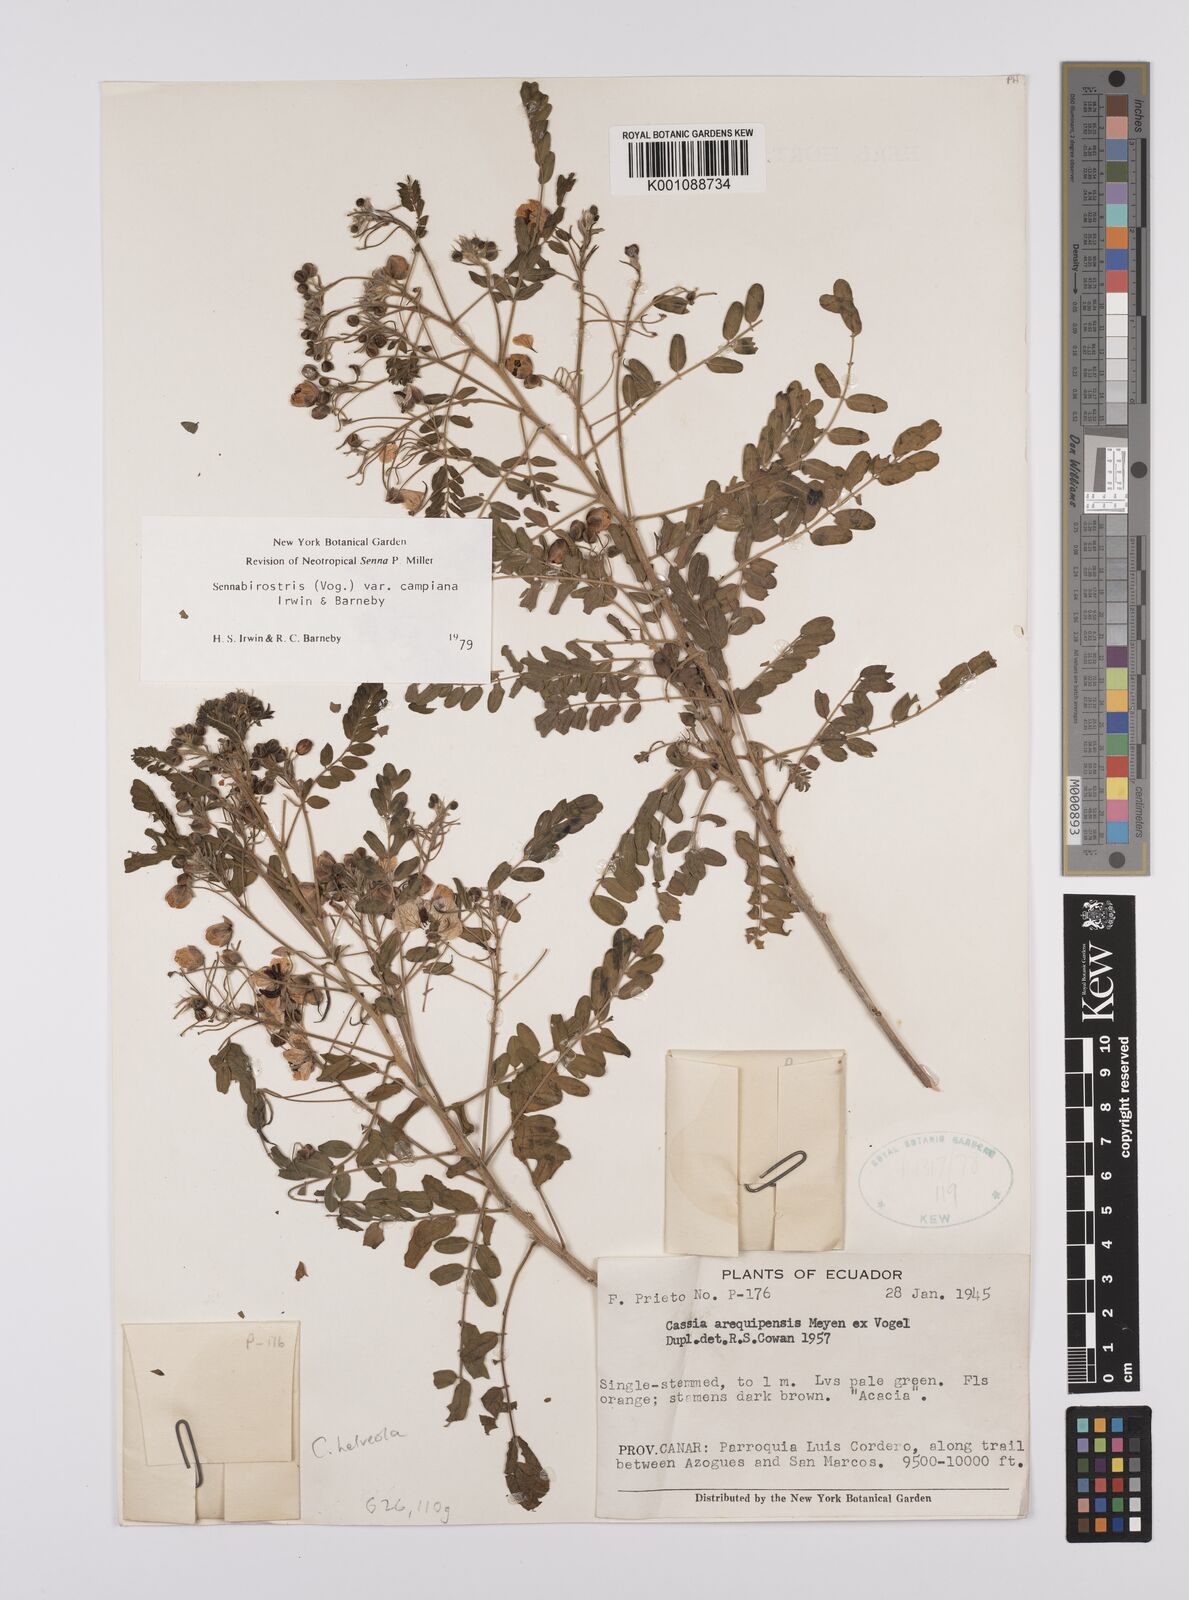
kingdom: Plantae
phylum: Tracheophyta
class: Magnoliopsida
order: Fabales
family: Fabaceae
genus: Senna
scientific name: Senna birostris
